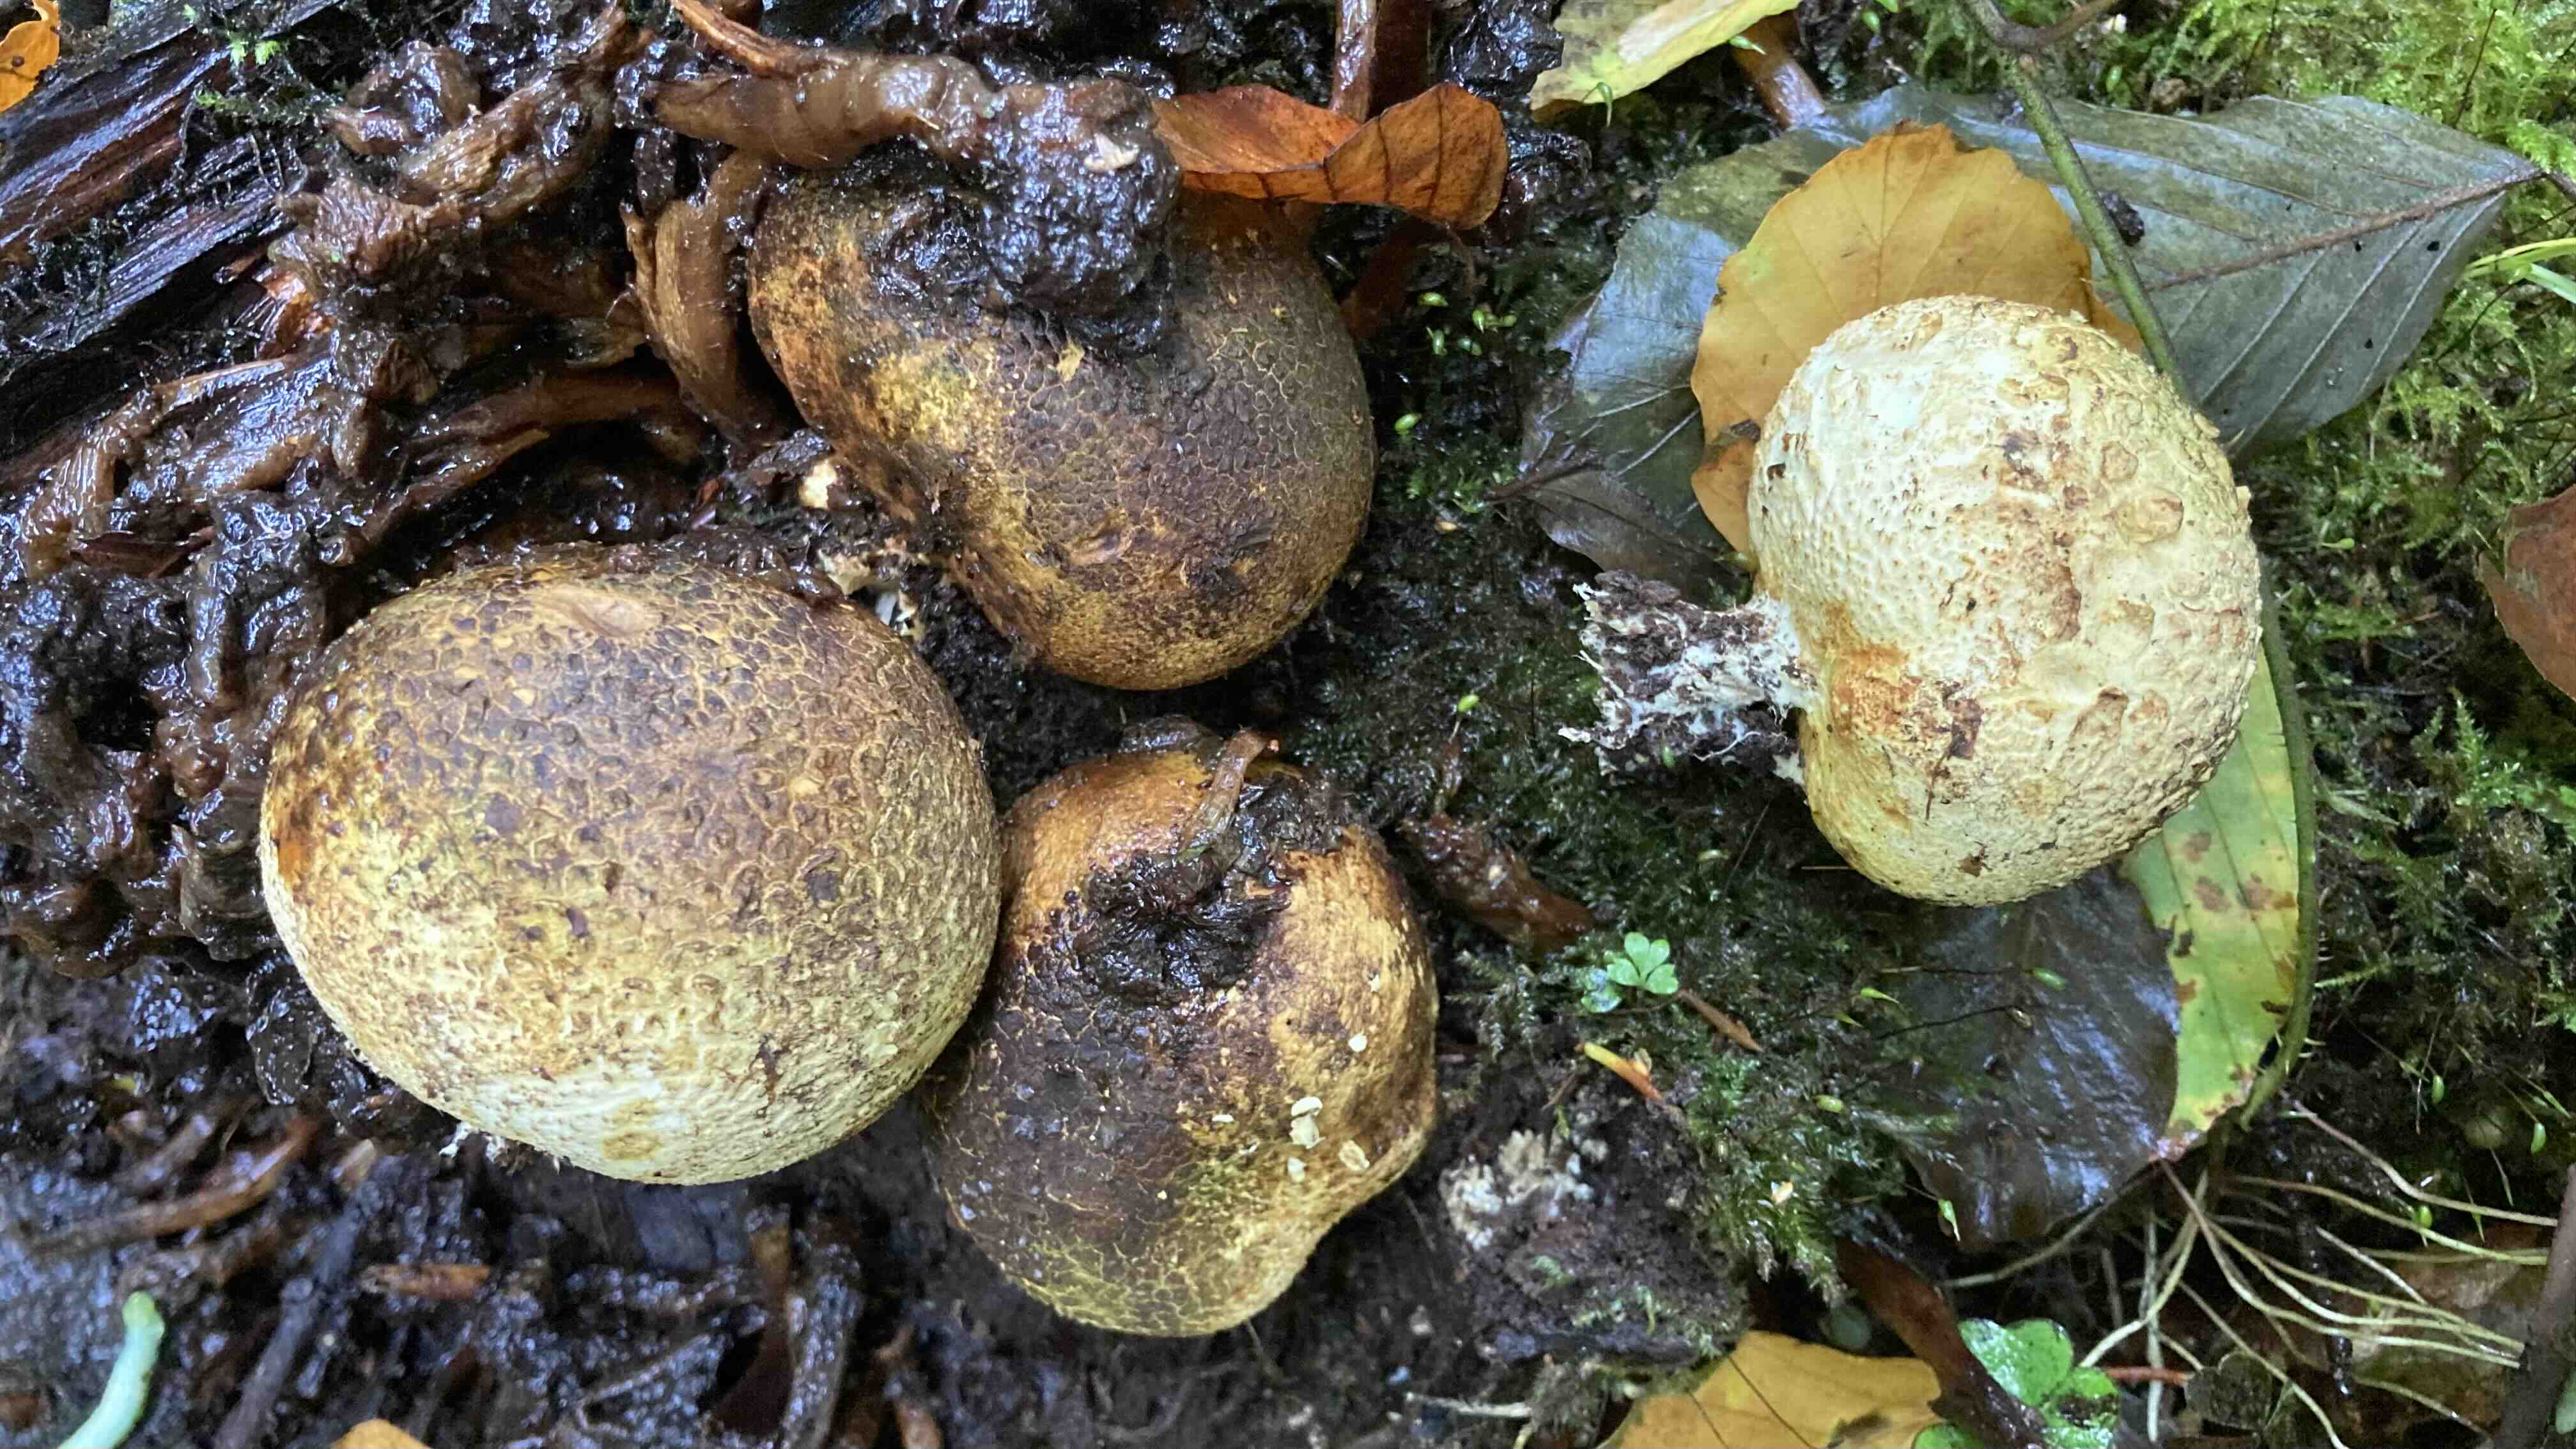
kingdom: Fungi
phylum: Basidiomycota
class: Agaricomycetes
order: Boletales
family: Sclerodermataceae
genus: Scleroderma
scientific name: Scleroderma citrinum
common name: almindelig bruskbold
